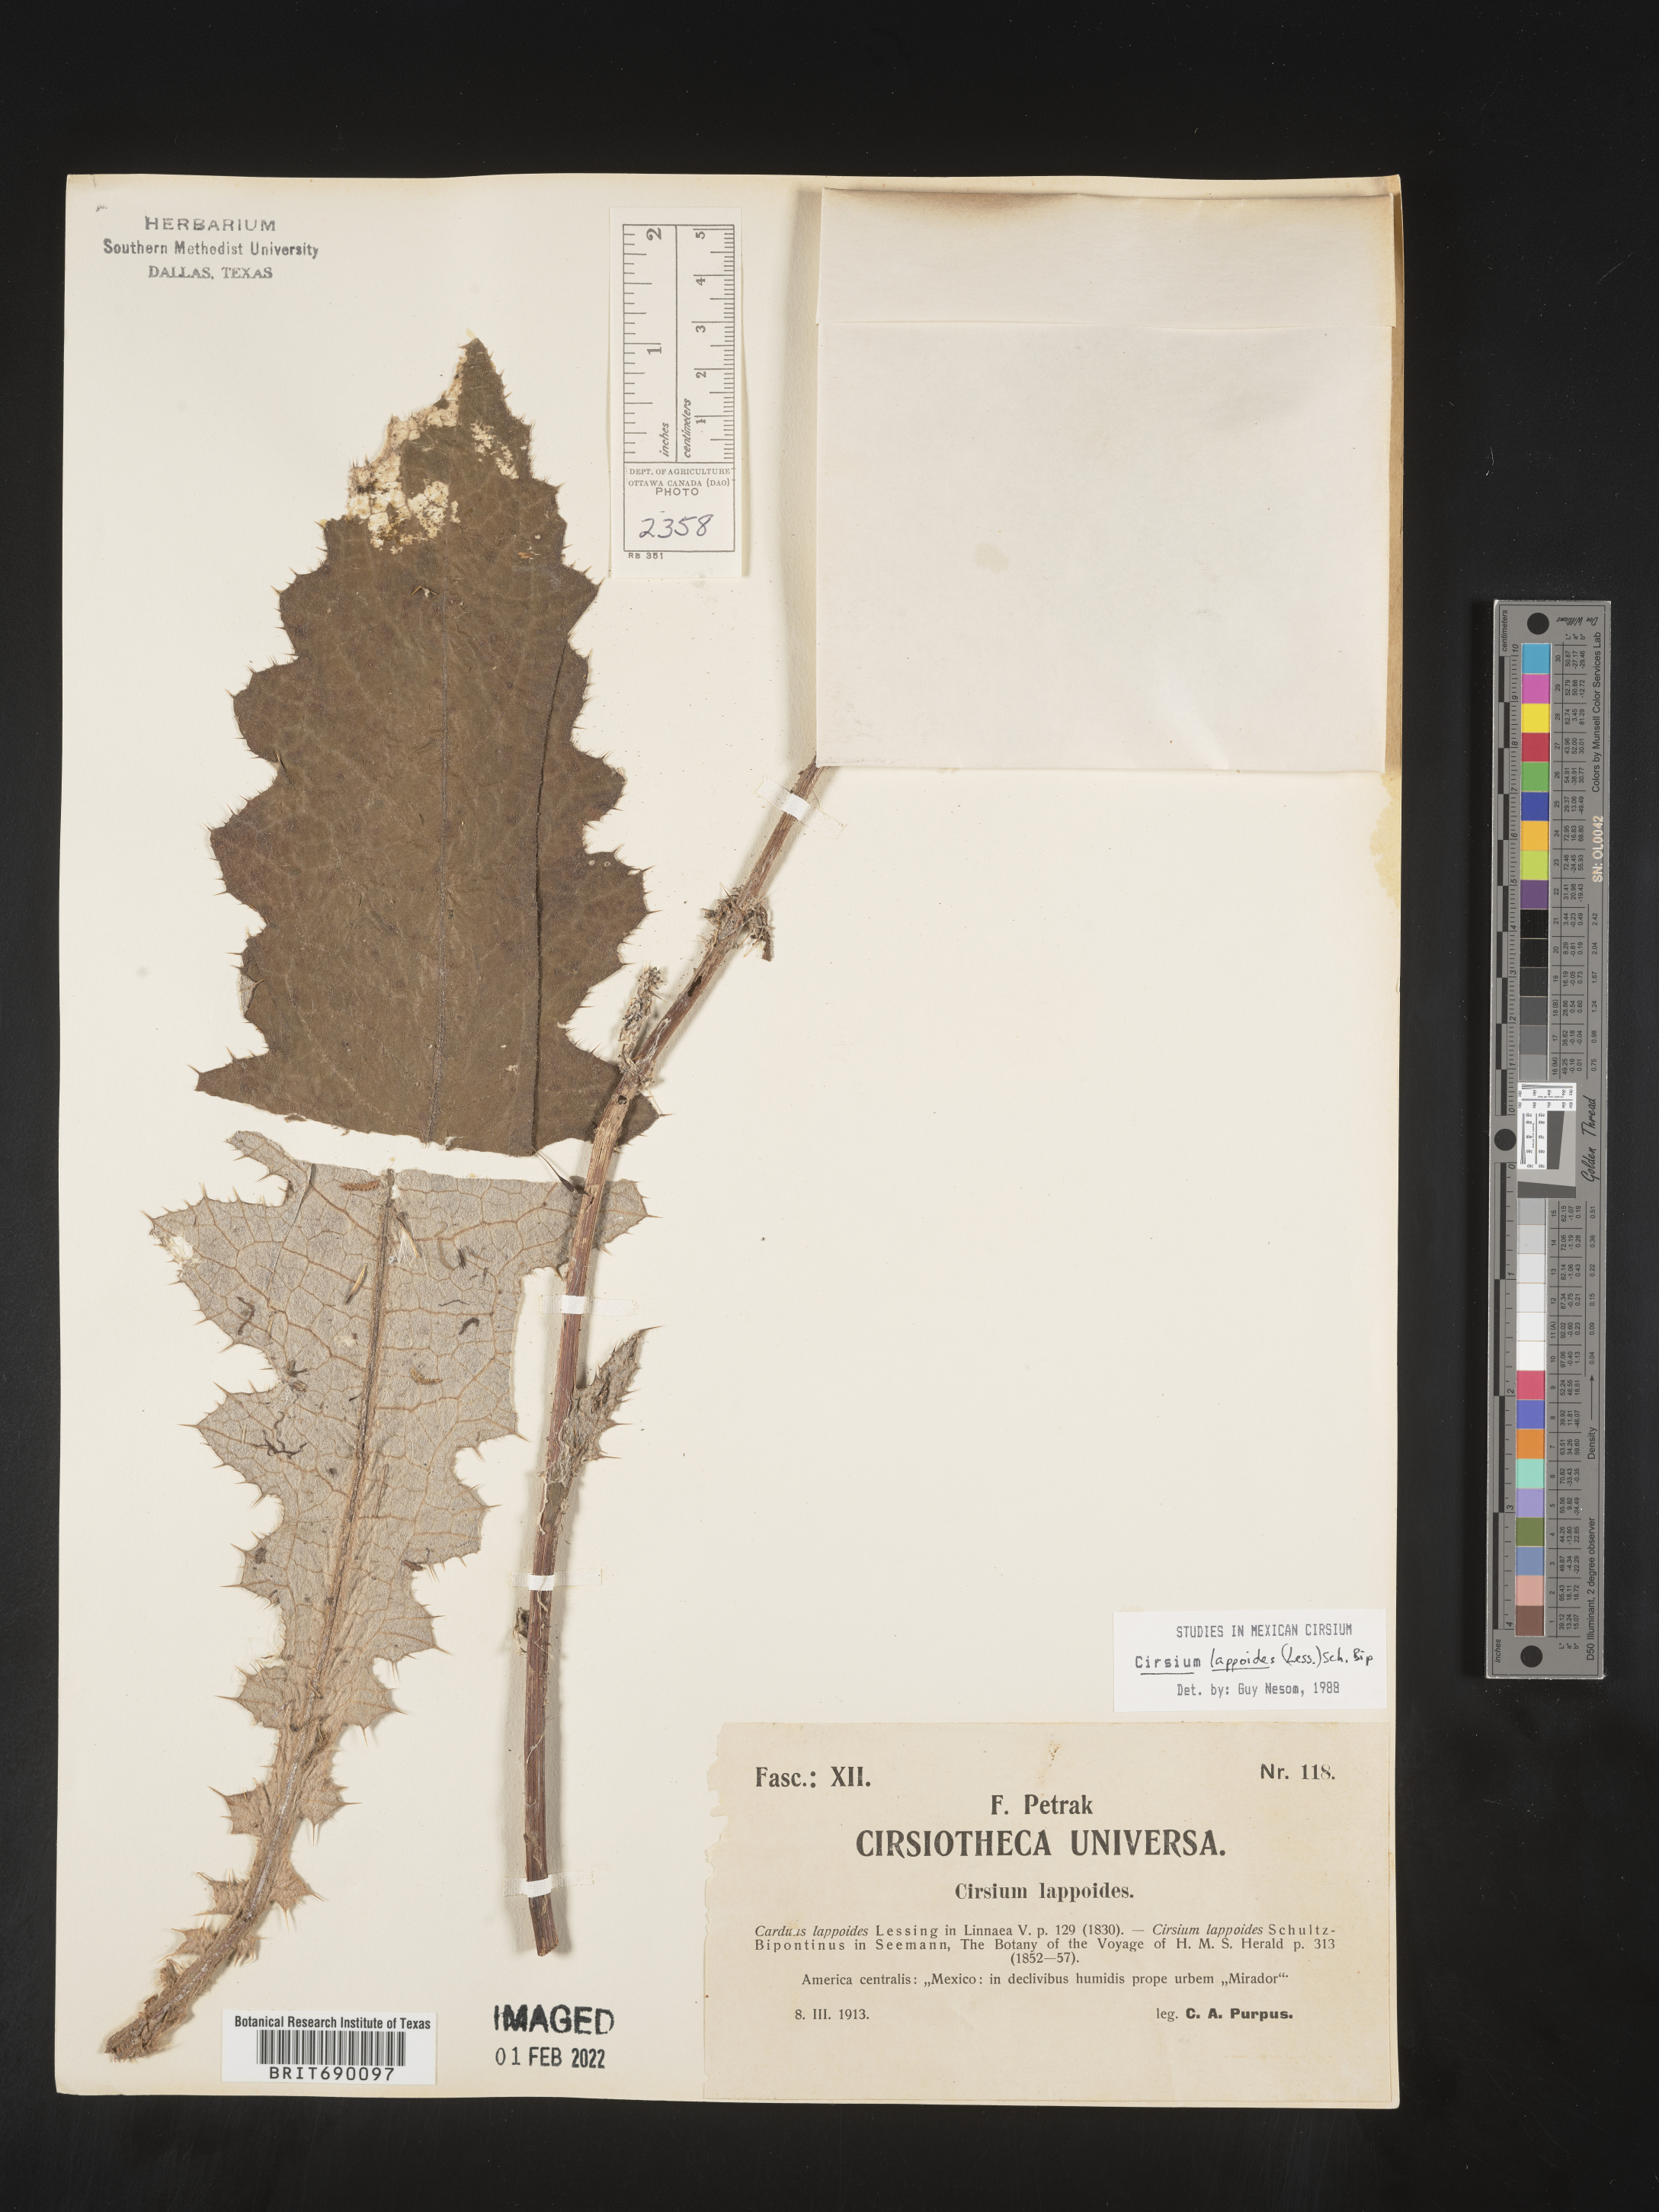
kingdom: Plantae
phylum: Tracheophyta
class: Magnoliopsida
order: Asterales
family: Asteraceae
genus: Cirsium
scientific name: Cirsium
